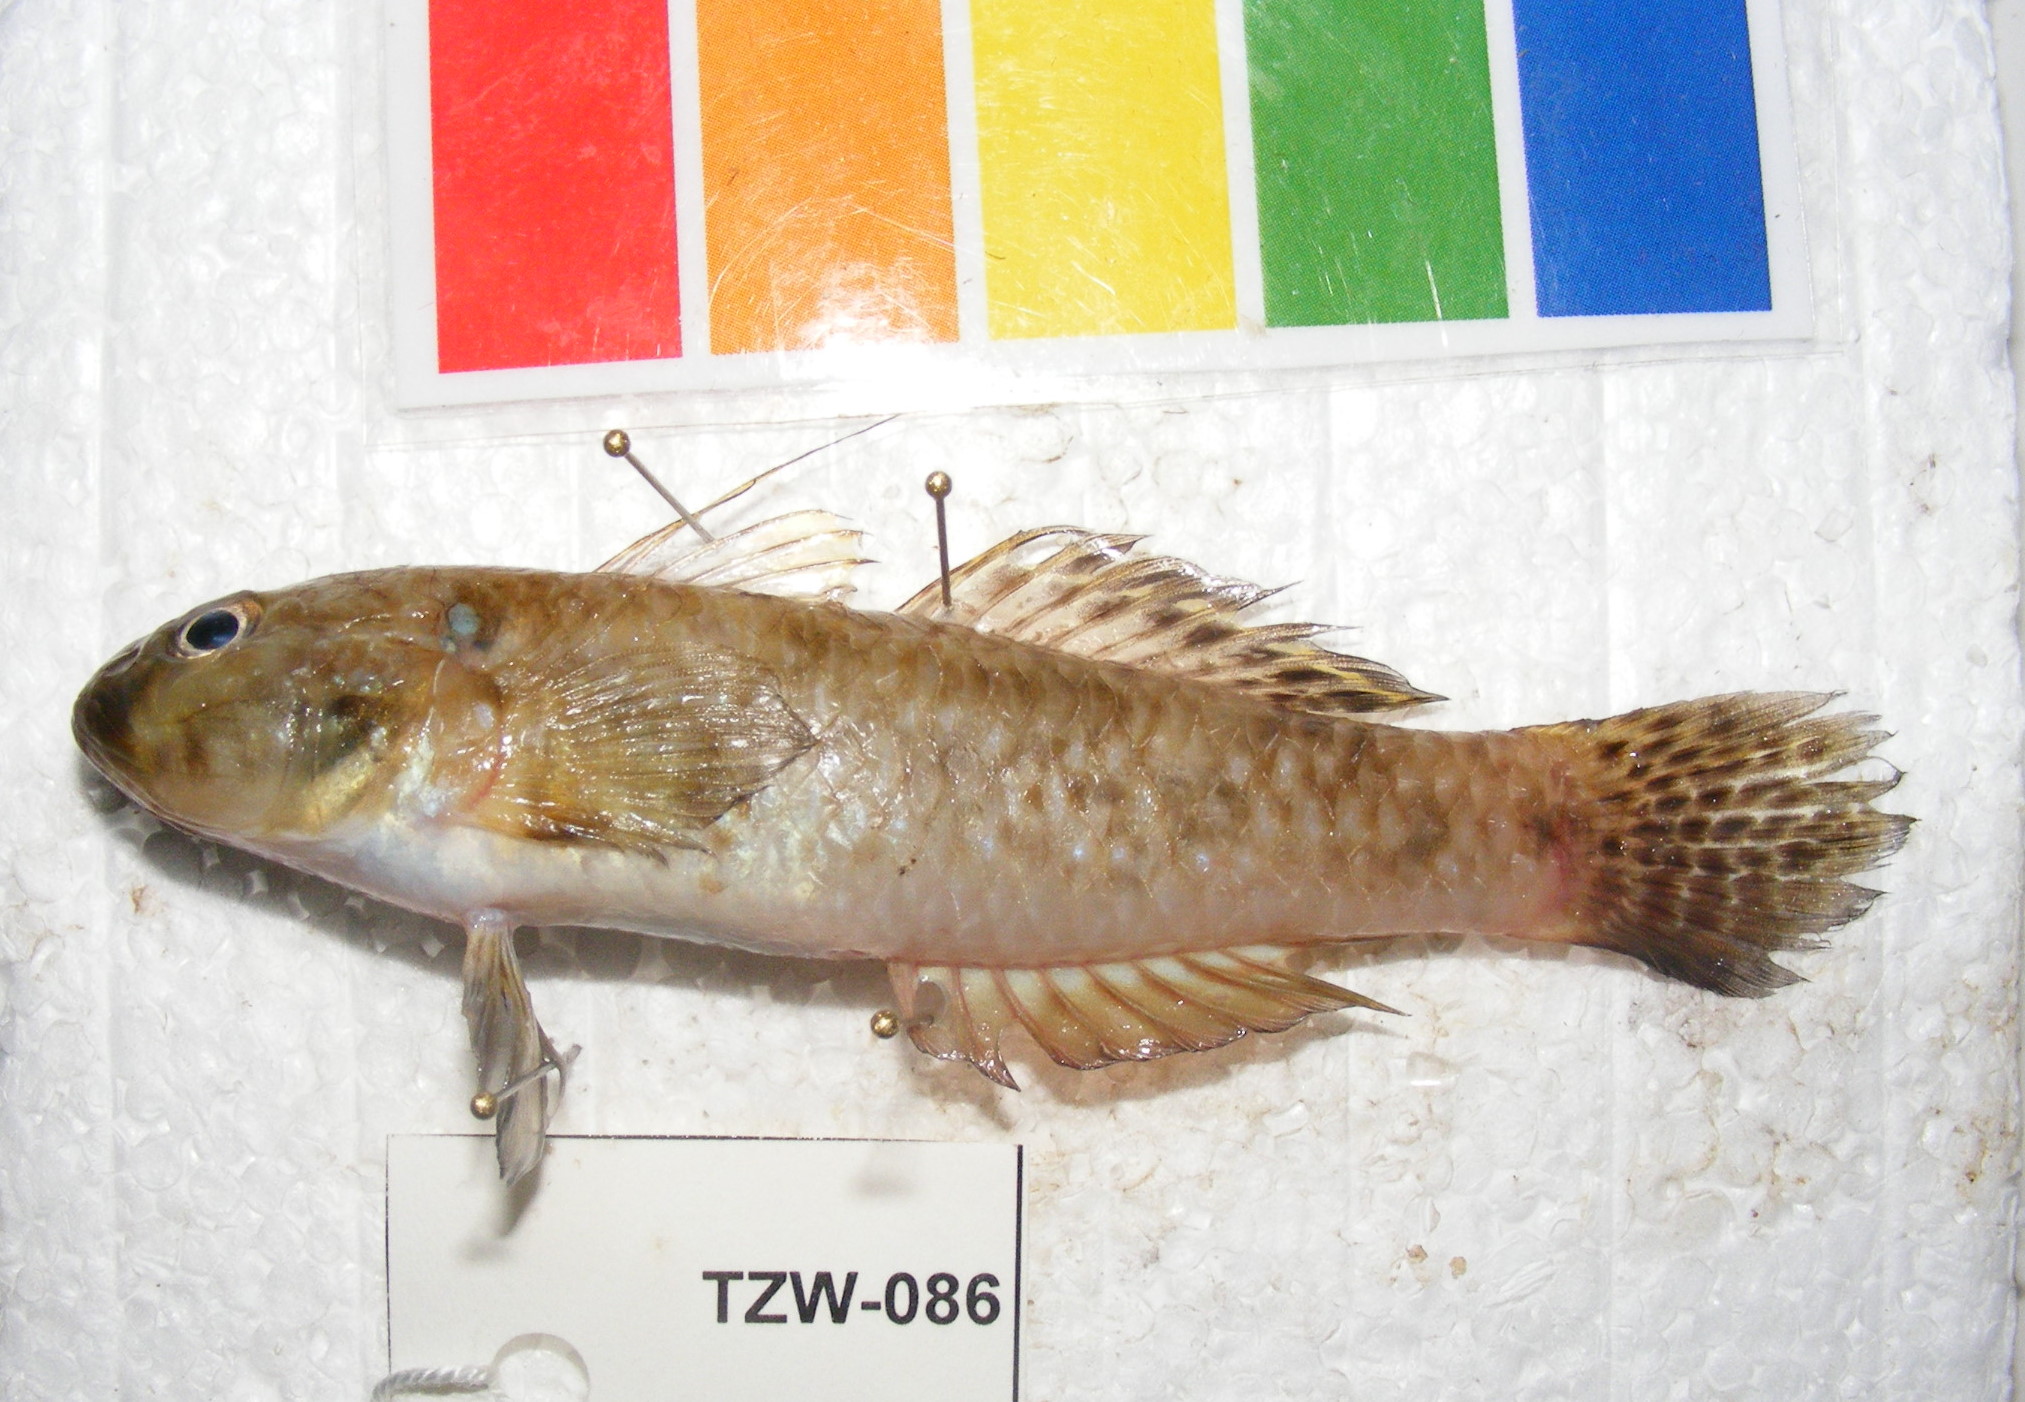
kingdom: Animalia
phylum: Chordata
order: Perciformes
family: Gobiidae
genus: Glossogobius
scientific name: Glossogobius
